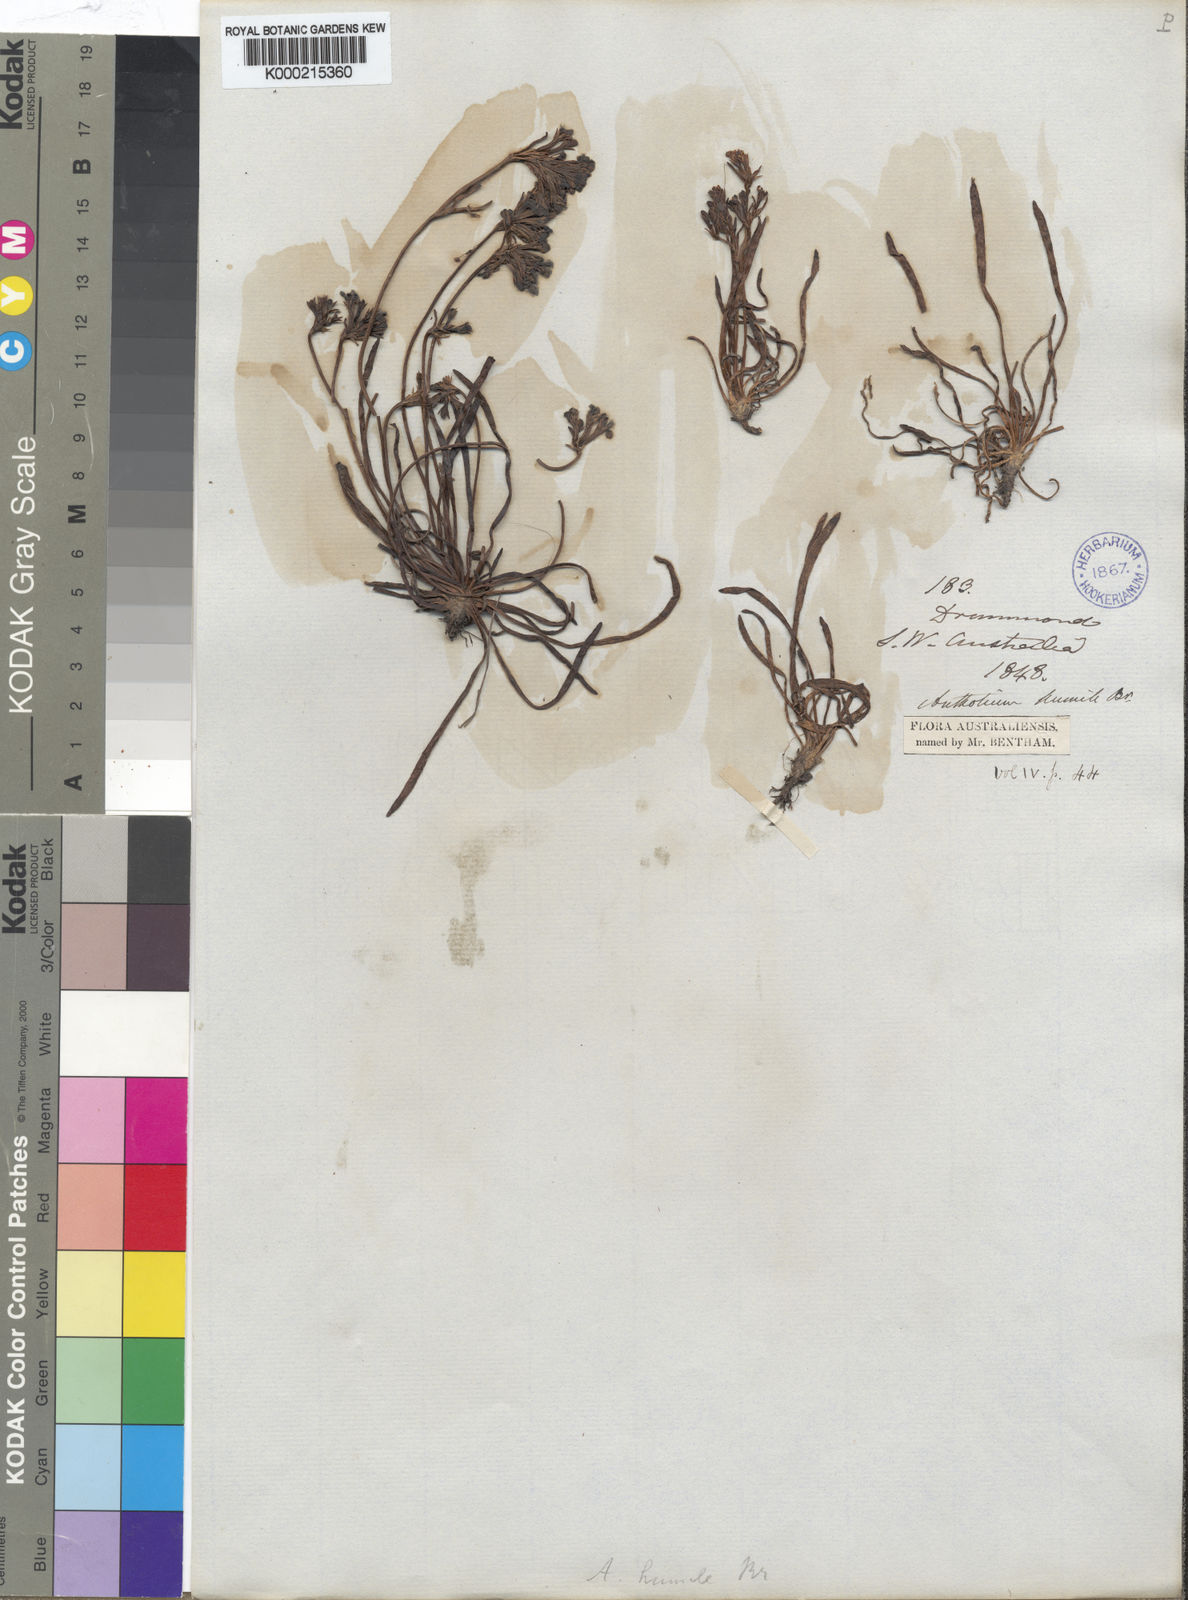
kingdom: Plantae
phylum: Tracheophyta
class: Magnoliopsida
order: Asterales
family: Goodeniaceae
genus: Anthotium
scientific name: Anthotium humile
